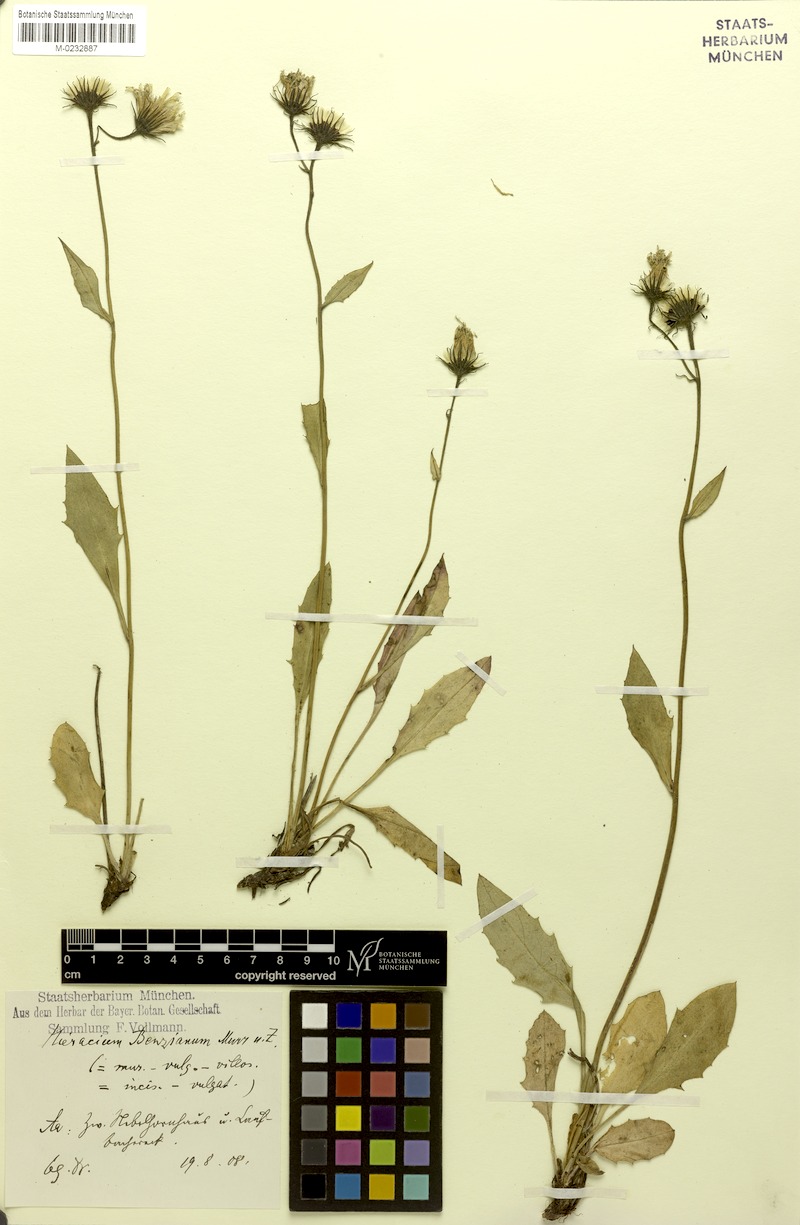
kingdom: Plantae
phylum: Tracheophyta
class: Magnoliopsida
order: Asterales
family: Asteraceae
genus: Hieracium
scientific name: Hieracium benzianum
